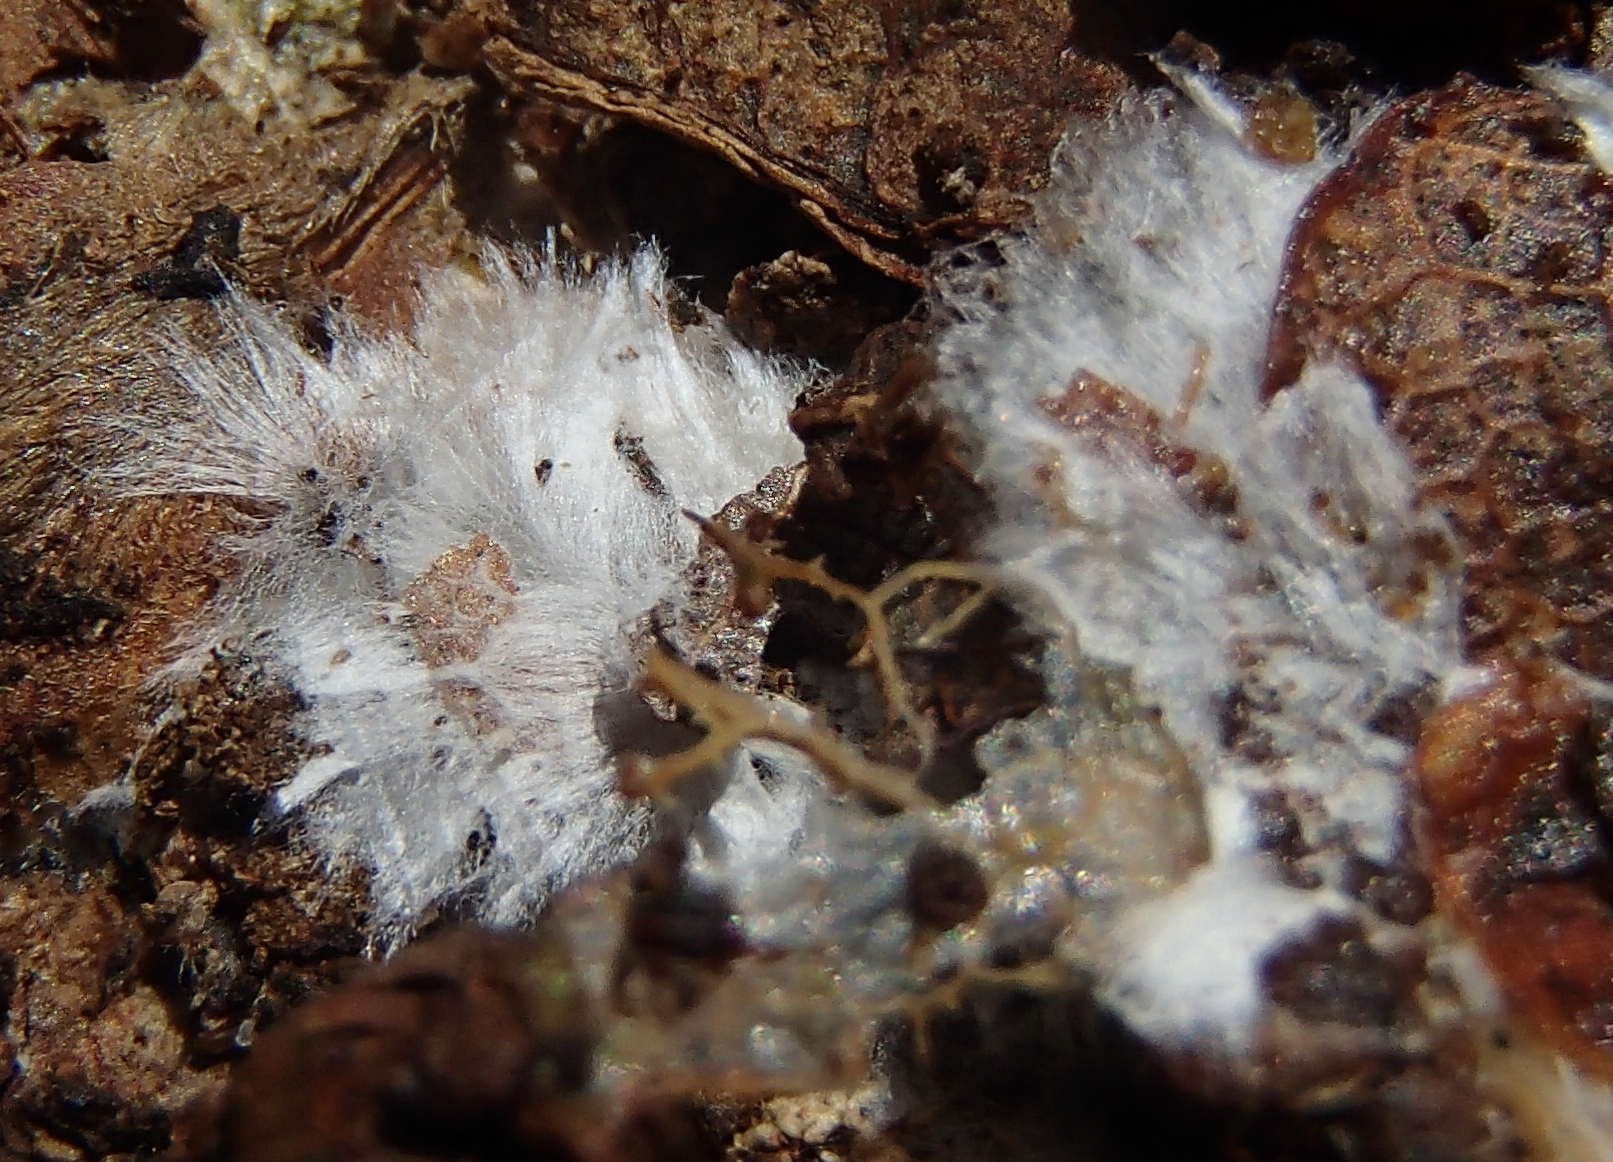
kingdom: Fungi
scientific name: Fungi
